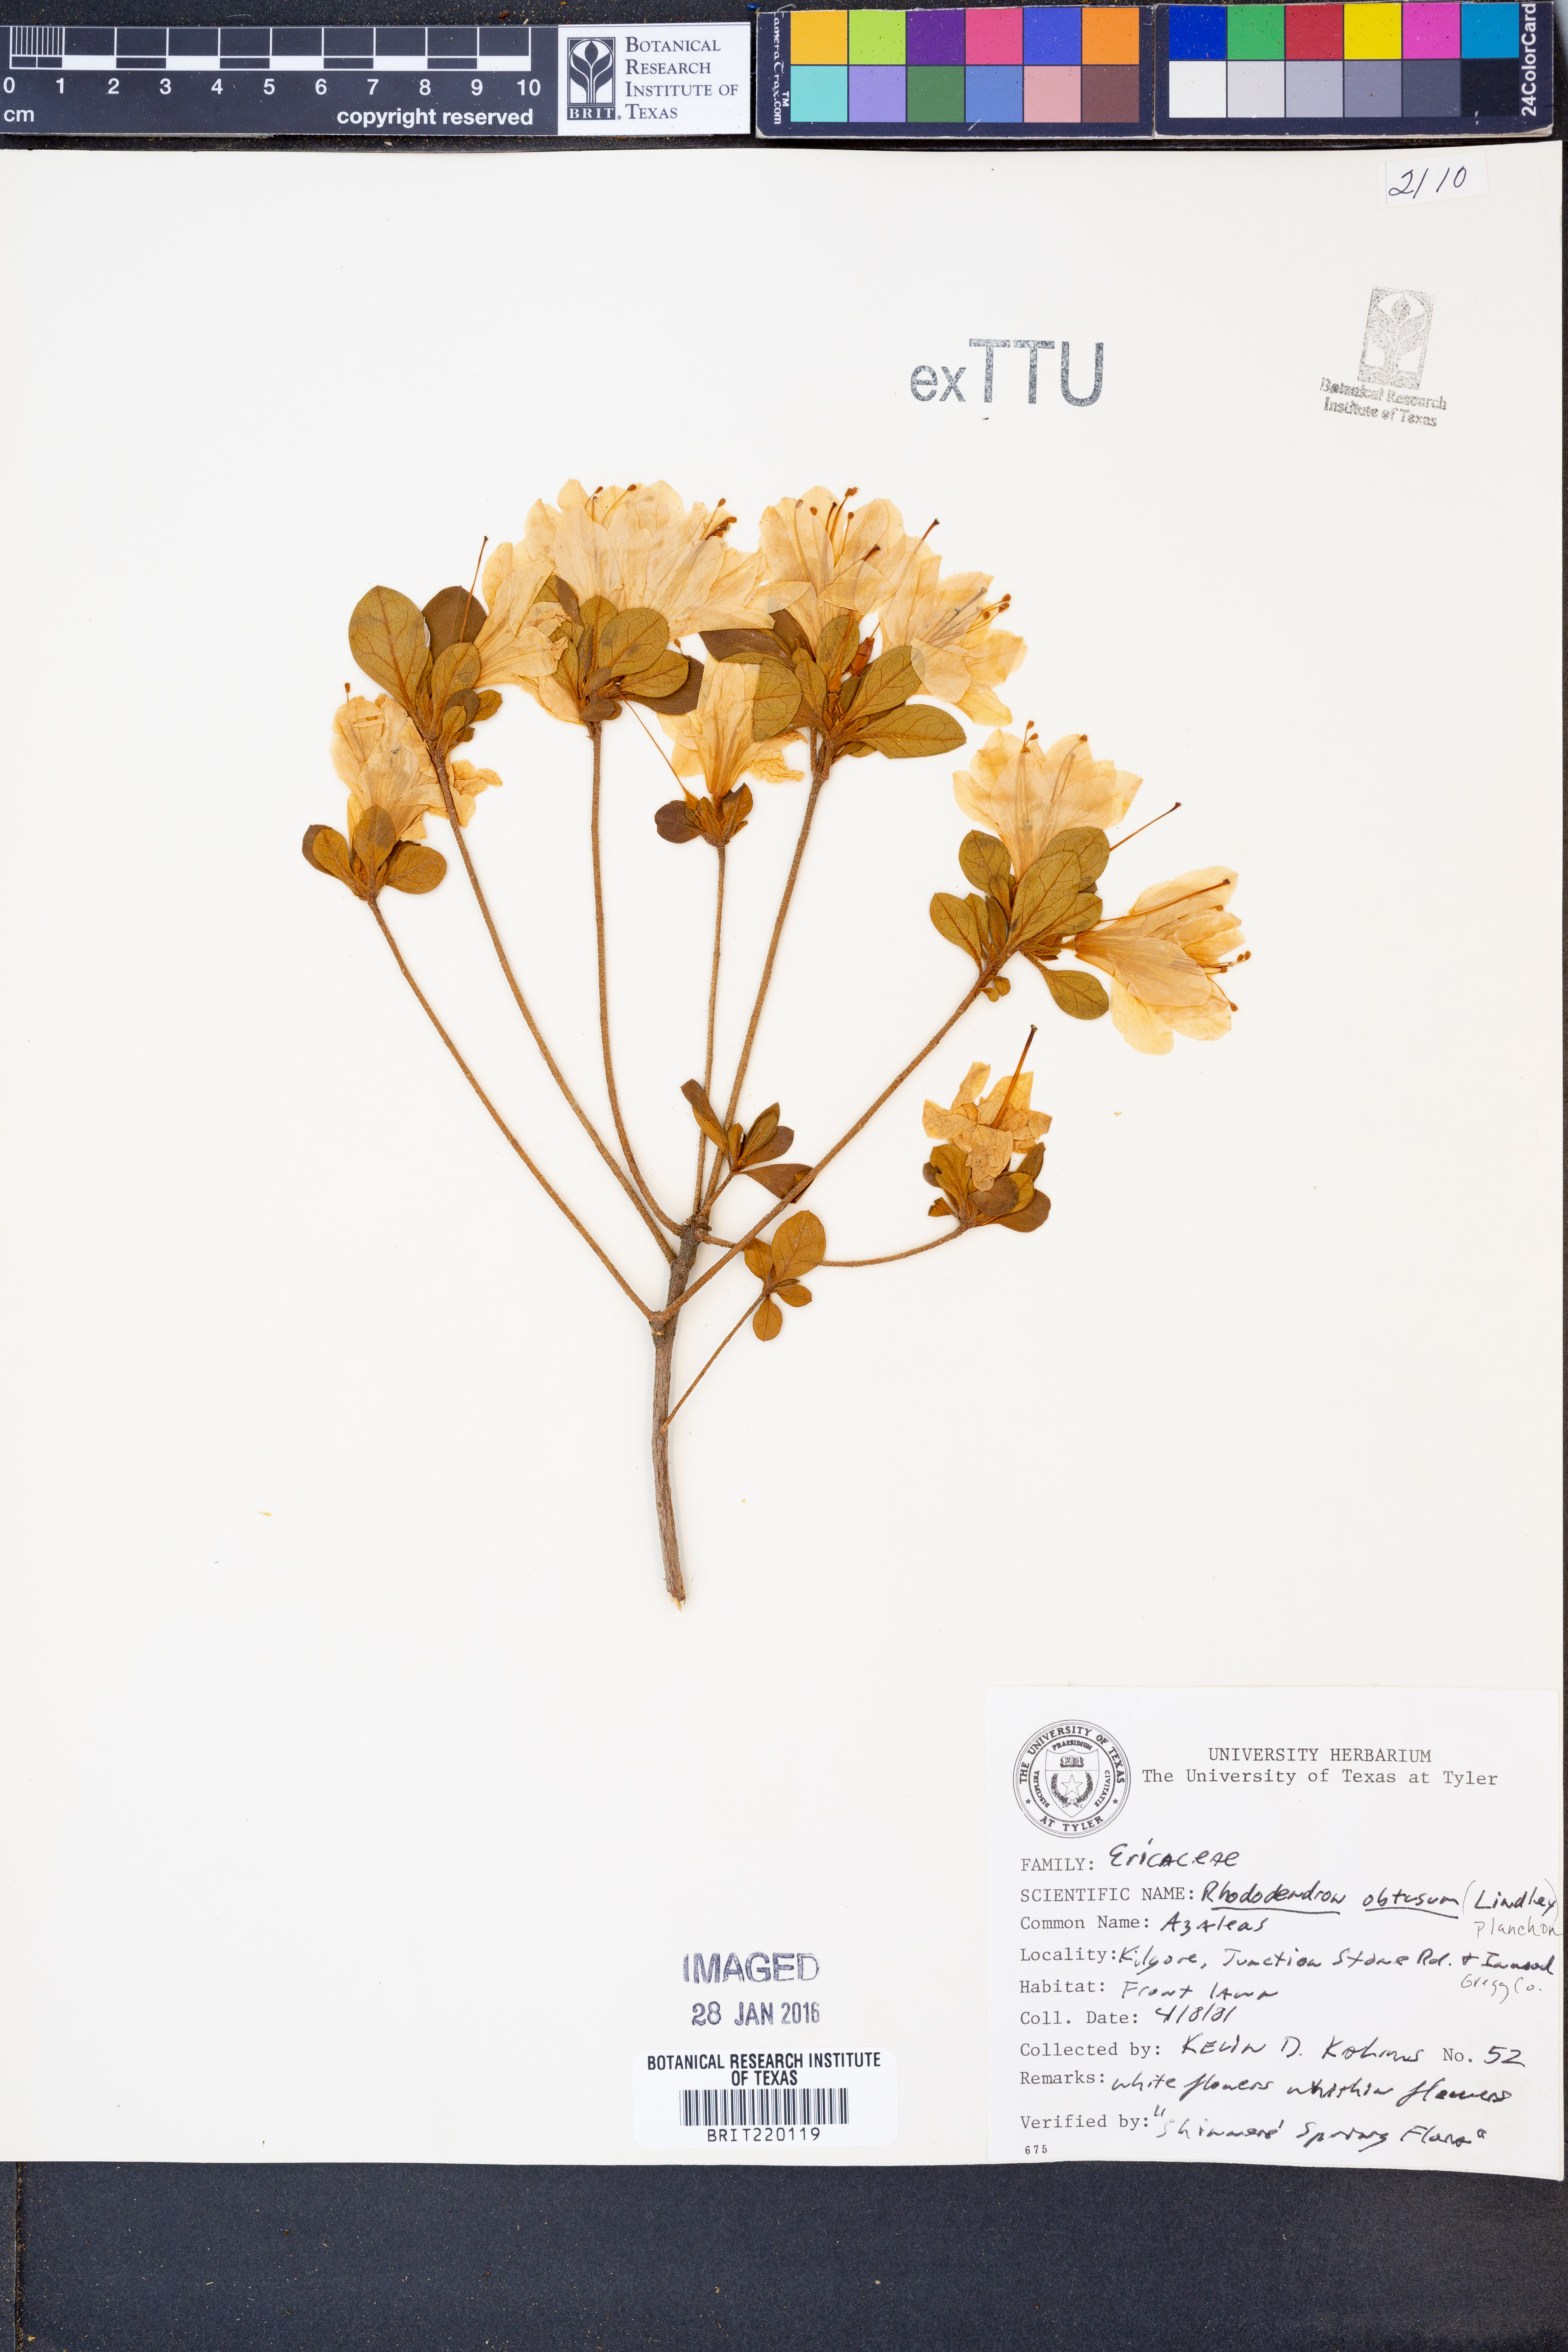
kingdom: Plantae
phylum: Tracheophyta
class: Magnoliopsida
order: Ericales
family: Ericaceae
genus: Rhododendron
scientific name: Rhododendron ponticum
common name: Rhododendron
